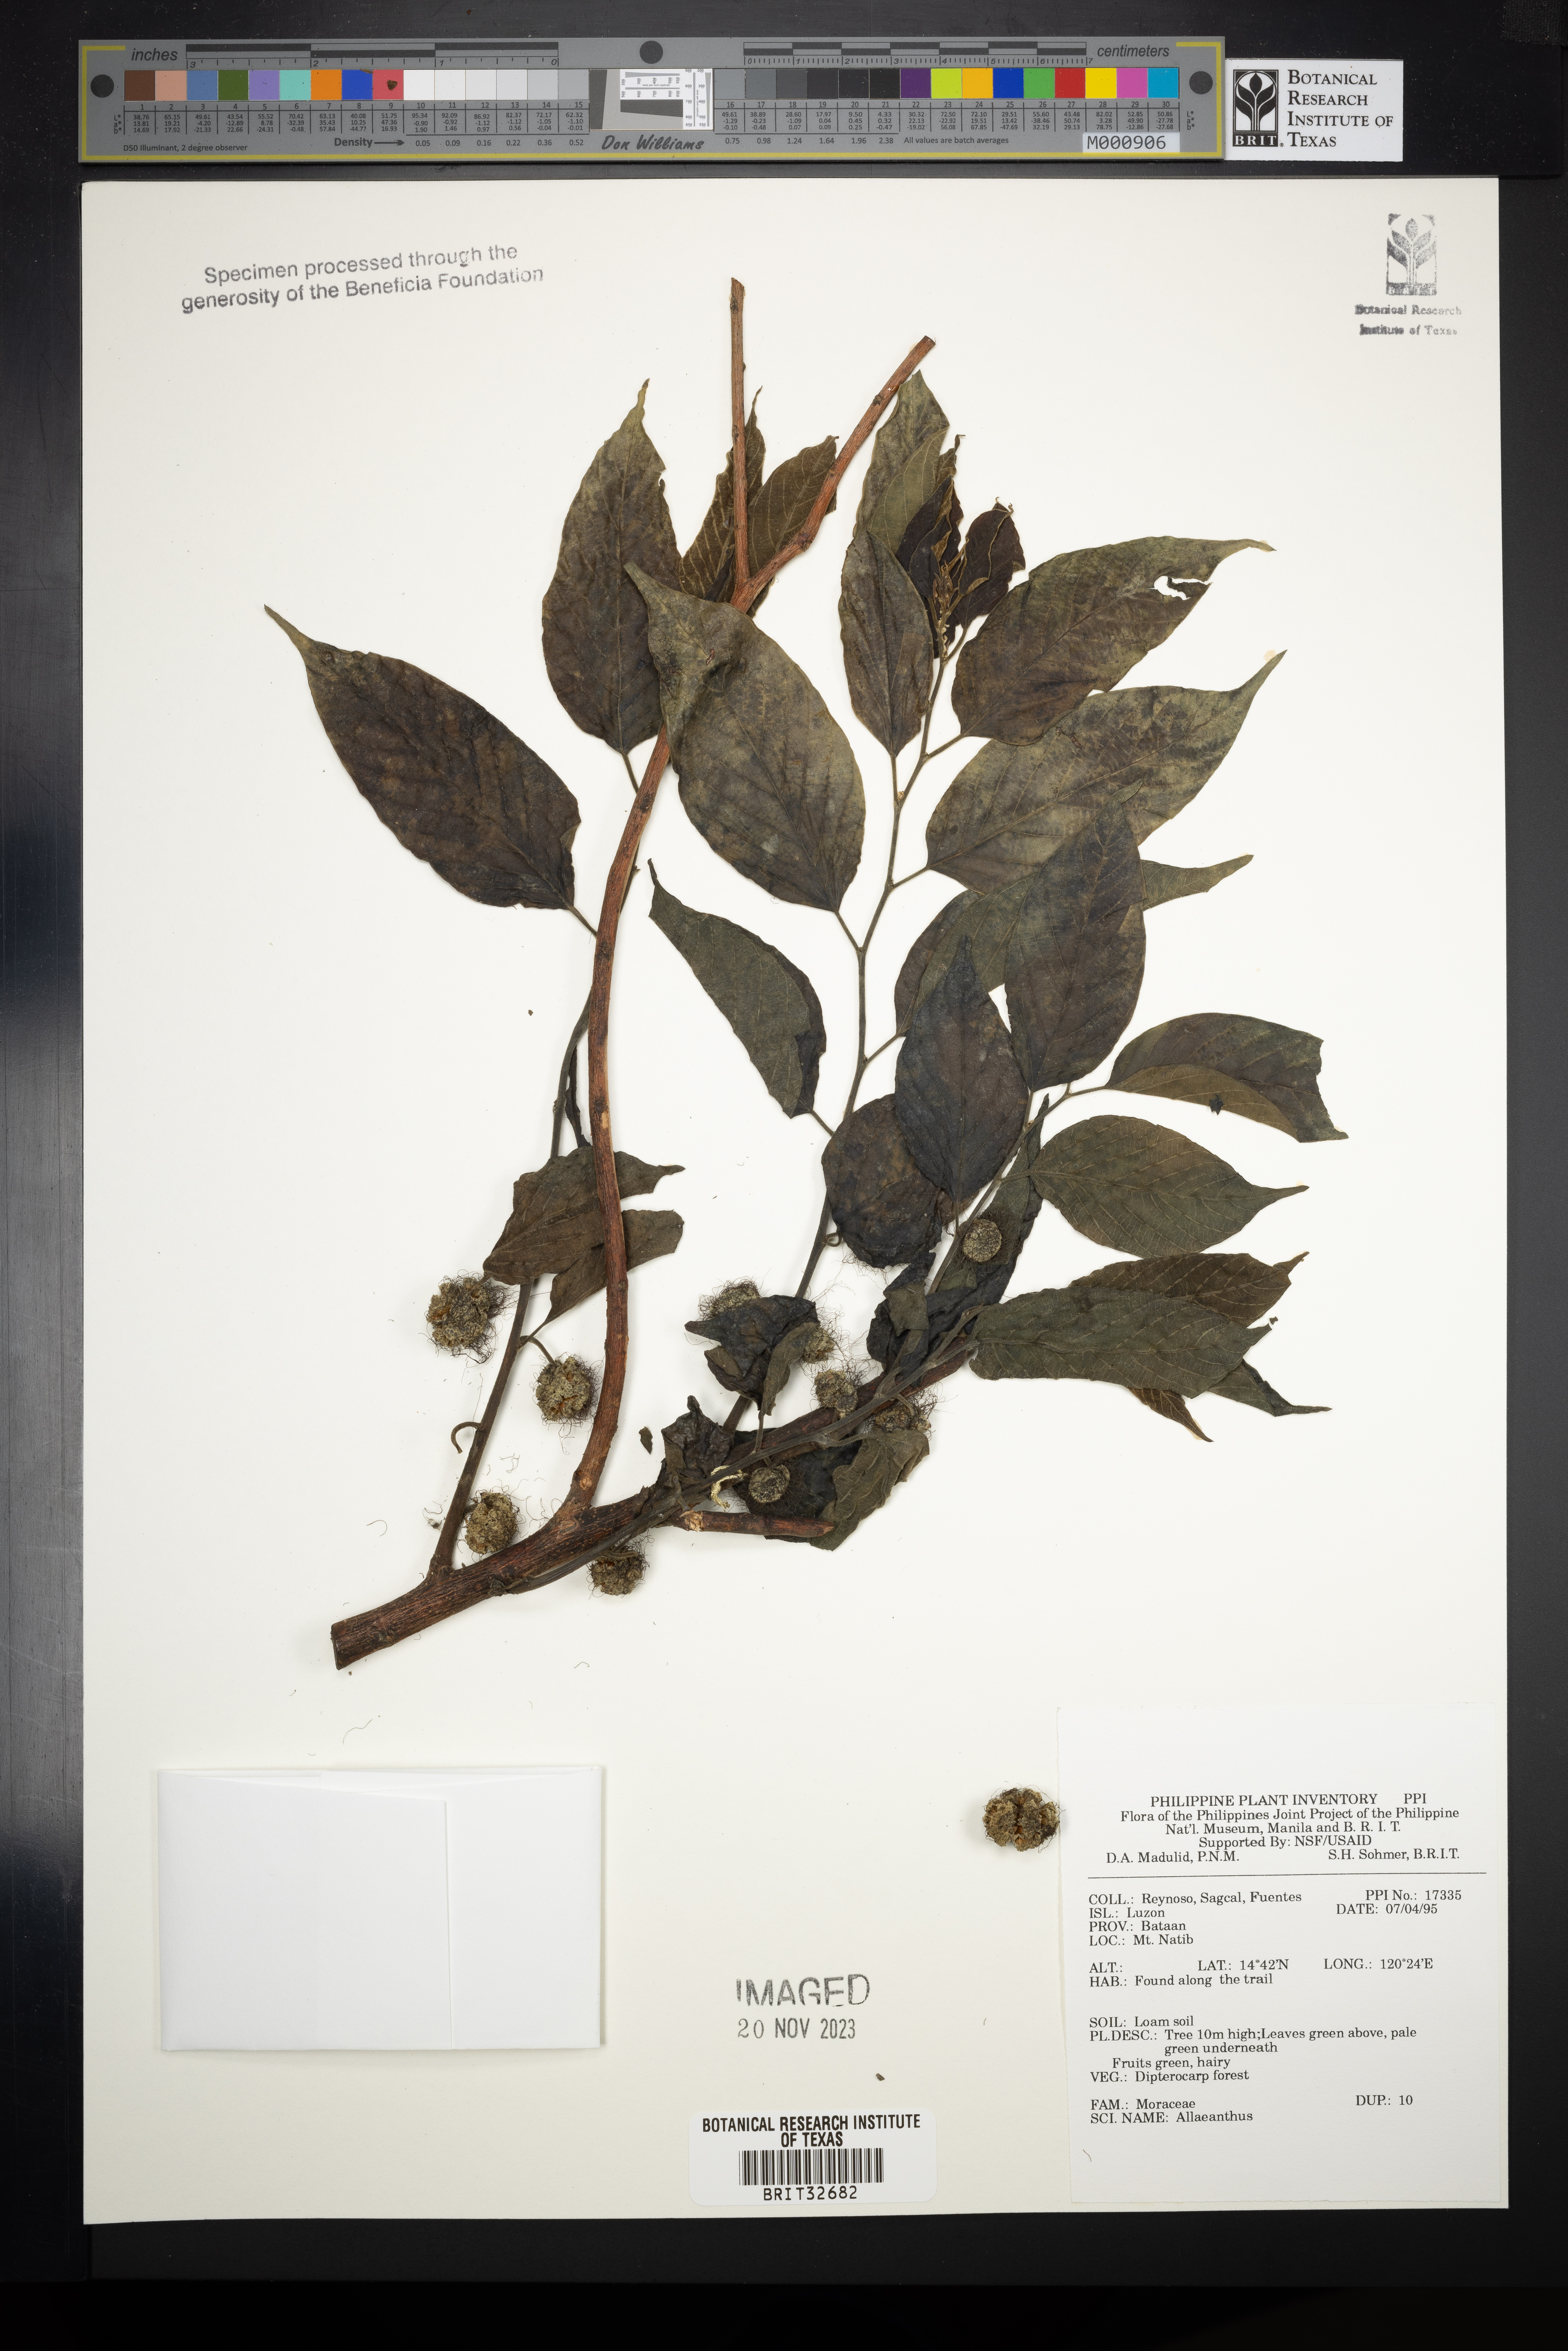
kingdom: Plantae
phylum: Tracheophyta
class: Magnoliopsida
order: Rosales
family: Moraceae
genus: Allaeanthus
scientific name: Allaeanthus
